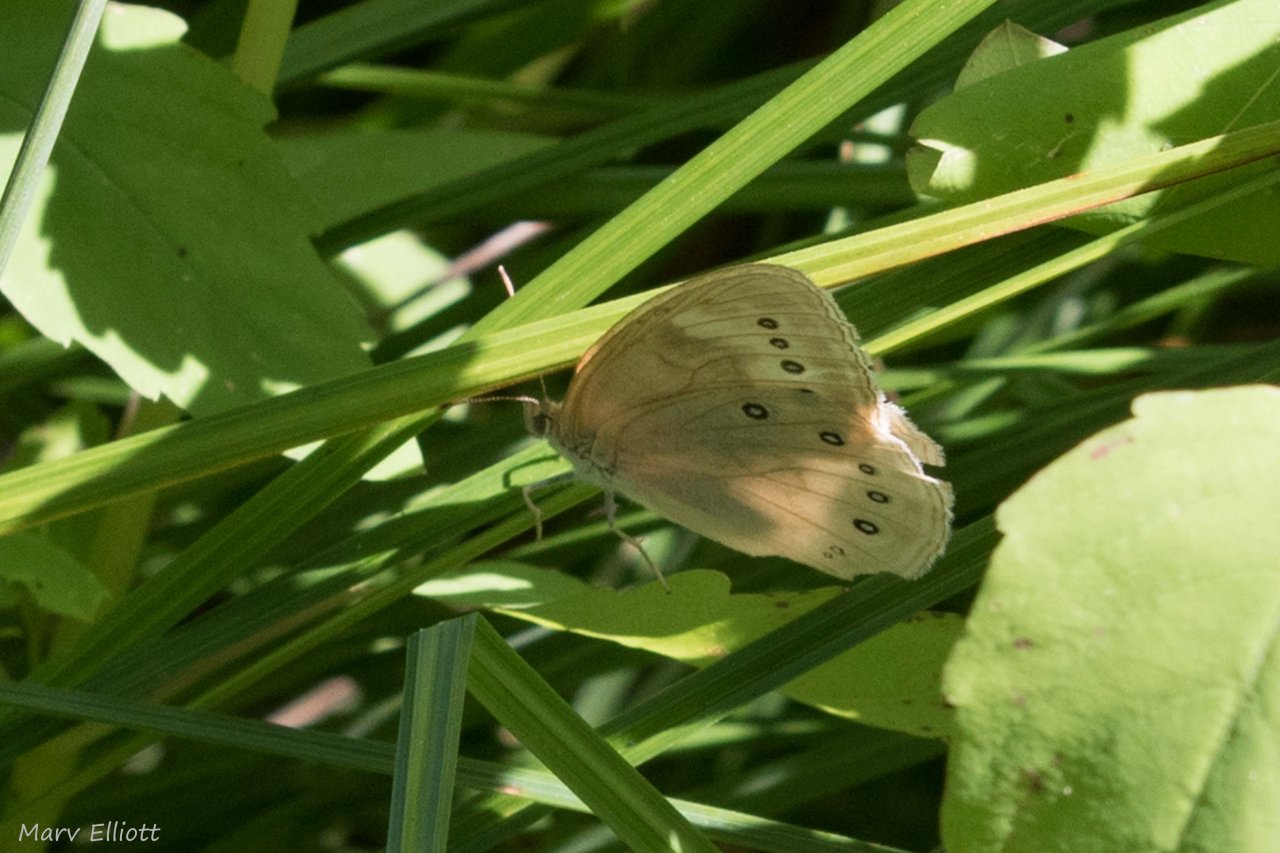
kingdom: Animalia
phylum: Arthropoda
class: Insecta
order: Lepidoptera
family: Nymphalidae
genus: Lethe
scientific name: Lethe eurydice
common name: Eyed Brown
